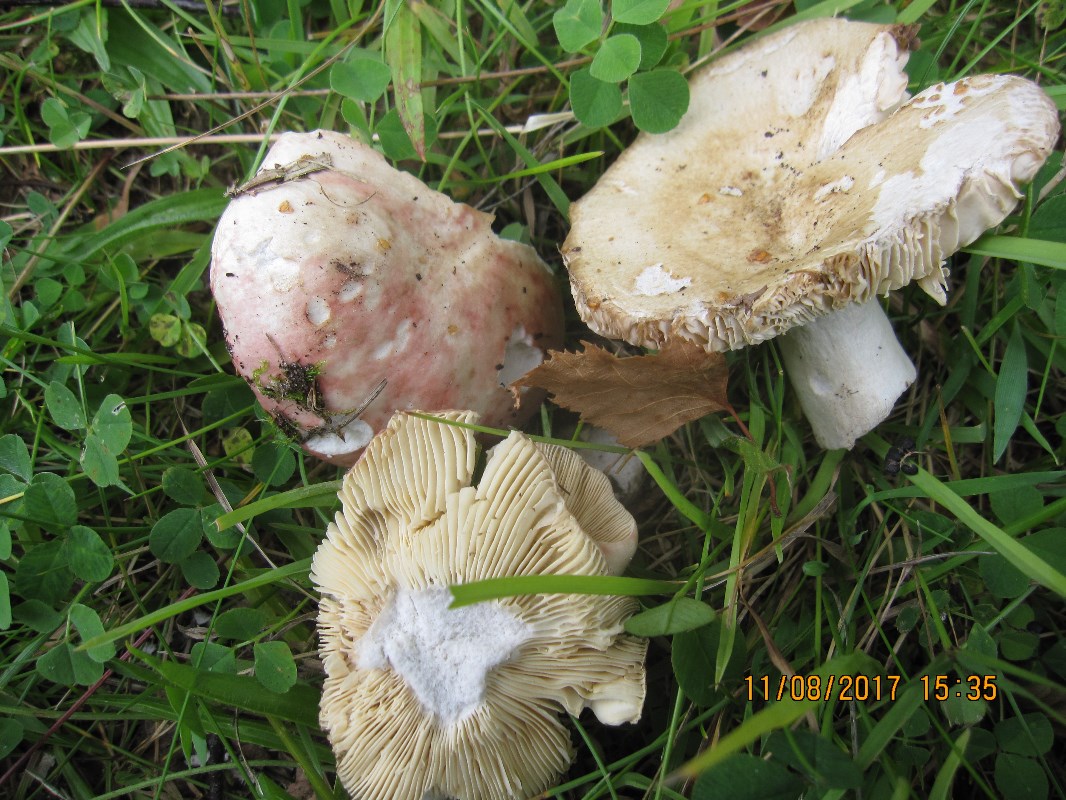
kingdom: Fungi
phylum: Basidiomycota
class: Agaricomycetes
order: Russulales
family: Russulaceae
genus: Russula
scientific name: Russula depallens
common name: falmende skørhat
